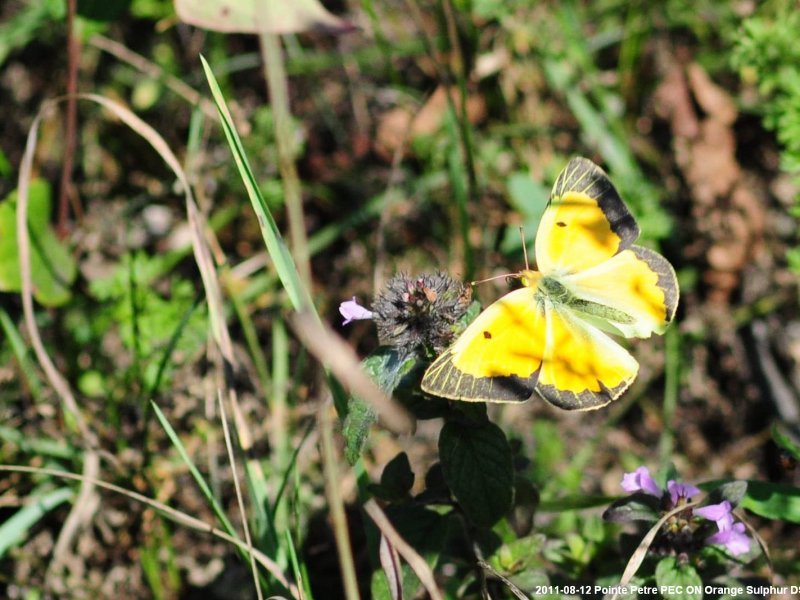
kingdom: Animalia
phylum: Arthropoda
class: Insecta
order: Lepidoptera
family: Pieridae
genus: Colias
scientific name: Colias eurytheme
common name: Orange Sulphur
